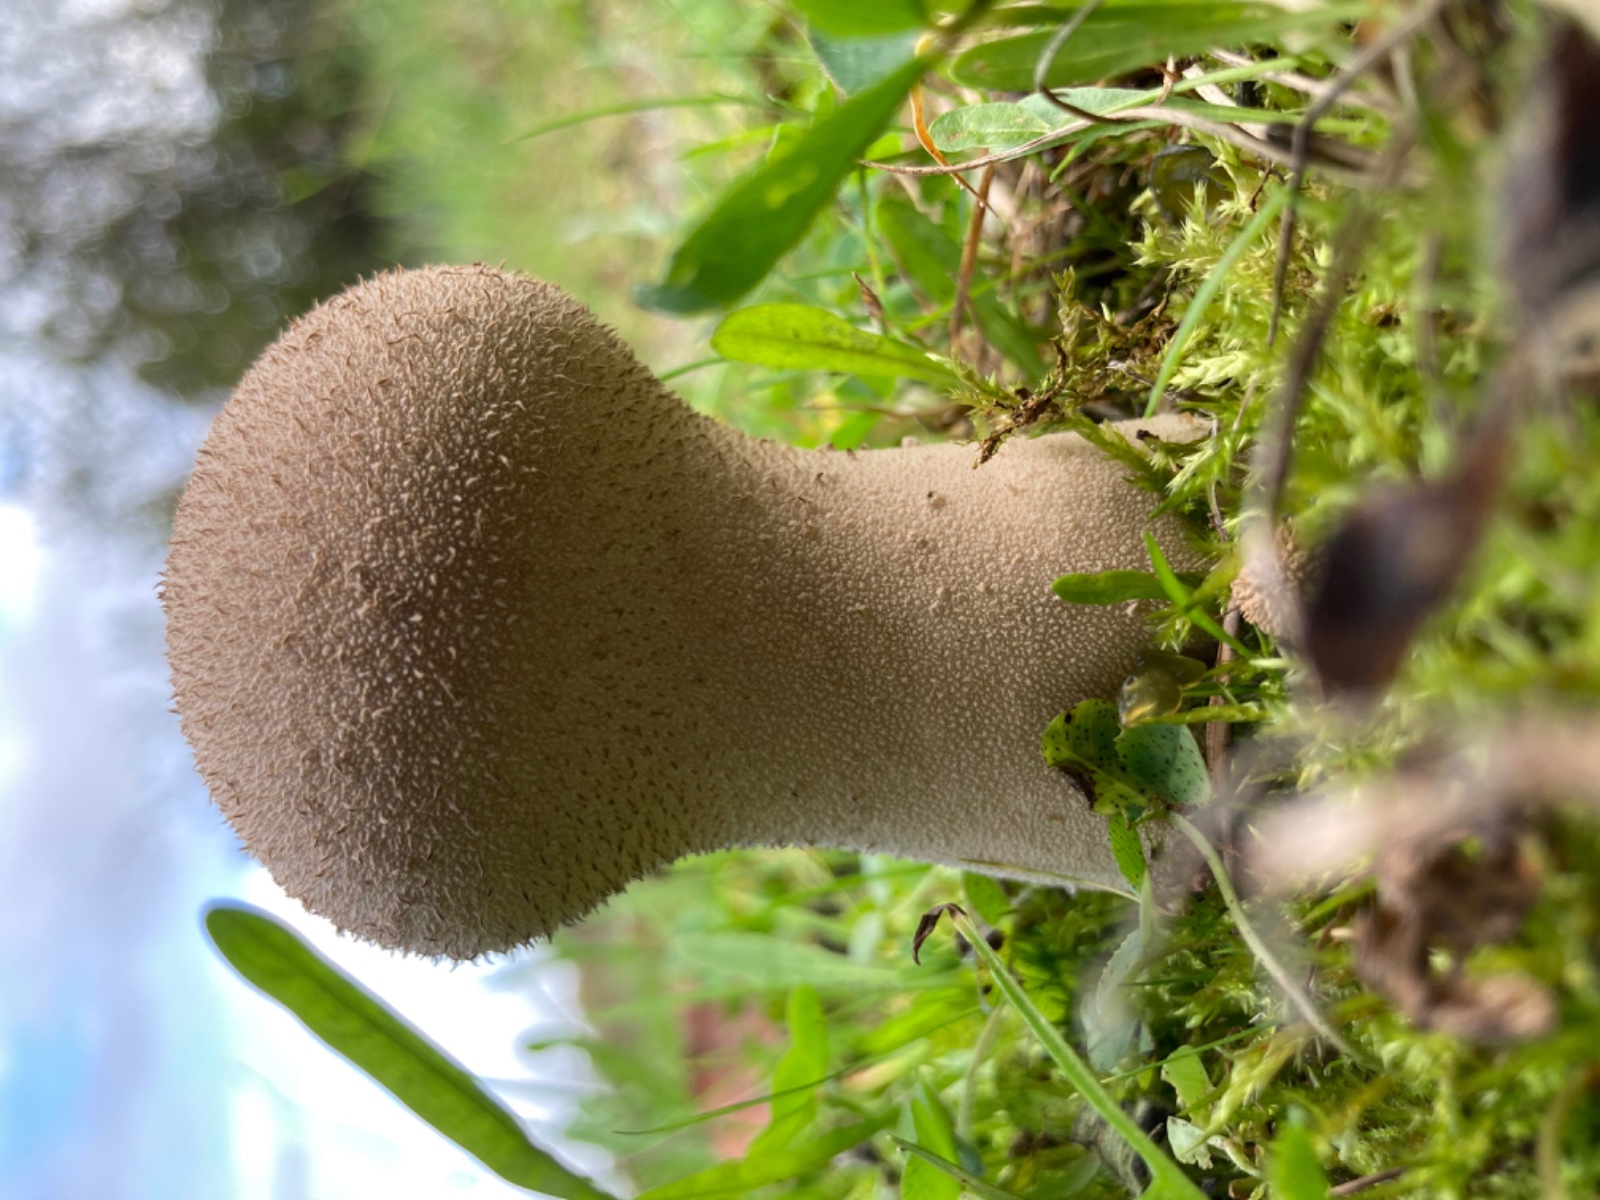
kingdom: Fungi
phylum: Basidiomycota
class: Agaricomycetes
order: Agaricales
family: Lycoperdaceae
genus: Lycoperdon
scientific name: Lycoperdon excipuliforme
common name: højstokket støvbold
